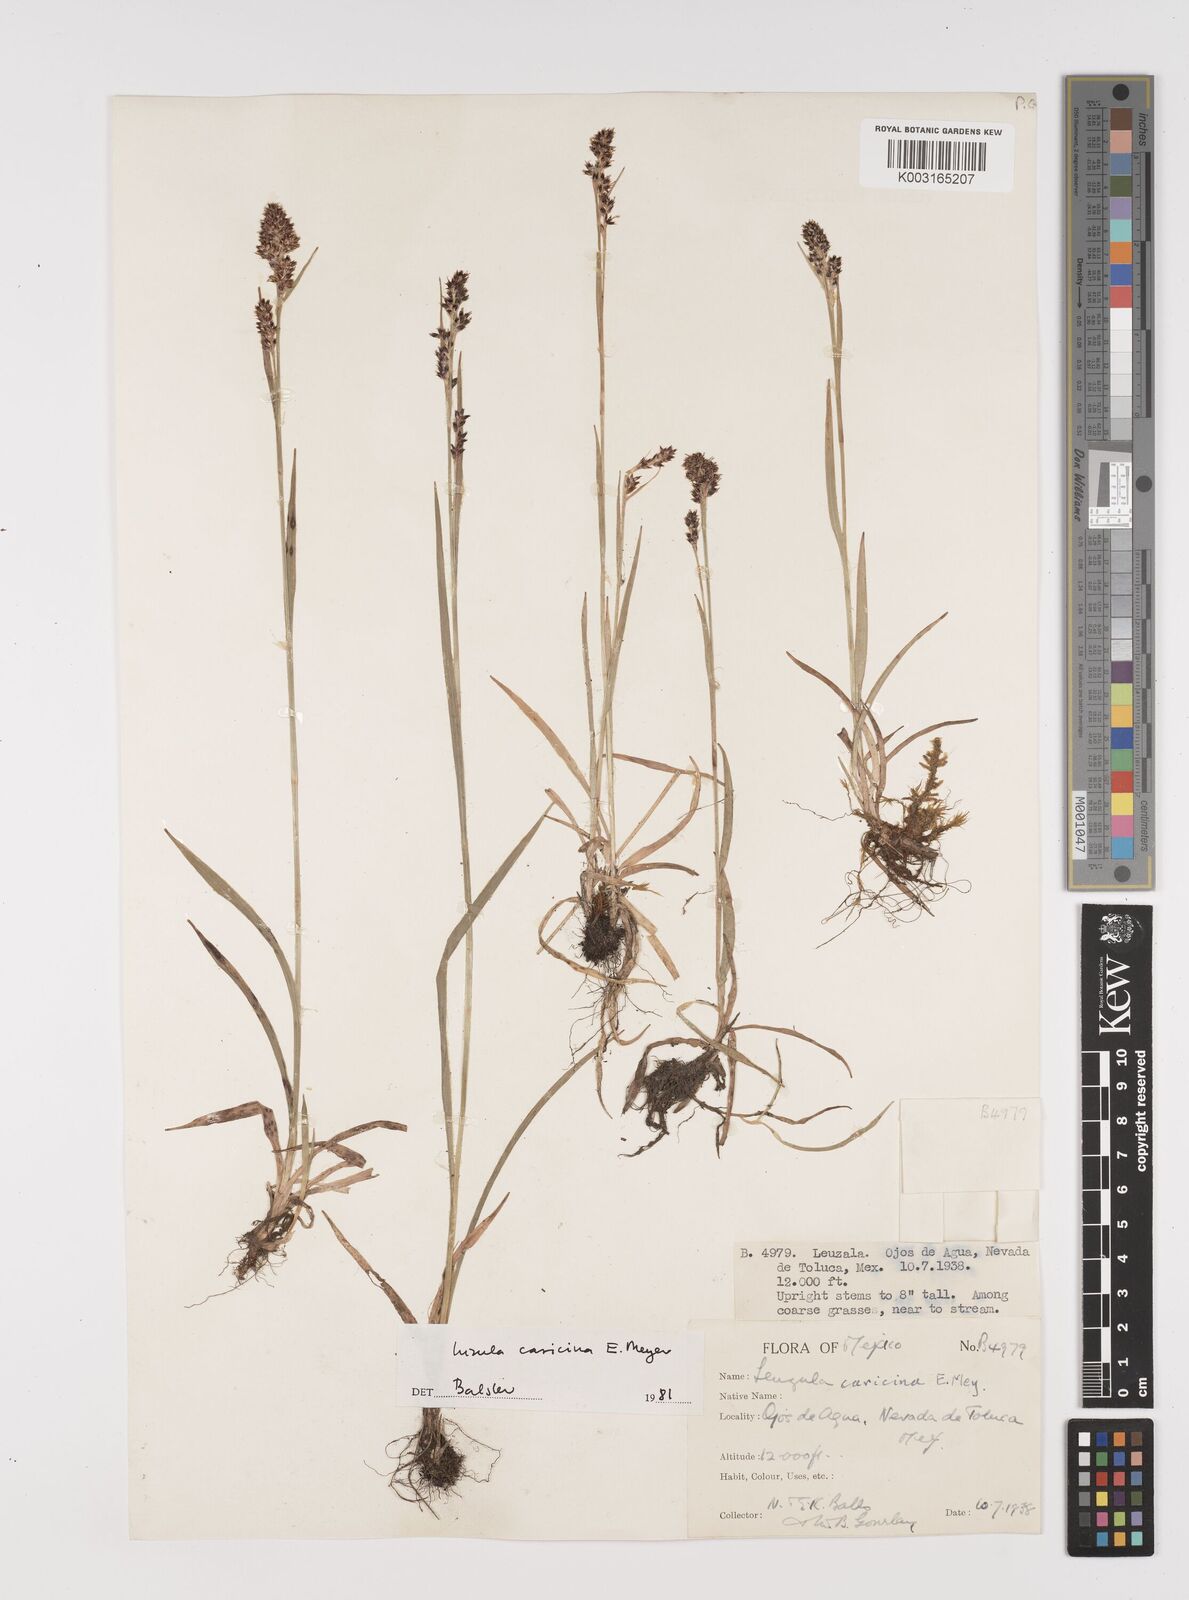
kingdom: Plantae
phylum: Tracheophyta
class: Liliopsida
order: Poales
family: Juncaceae
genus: Luzula
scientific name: Luzula caricina
